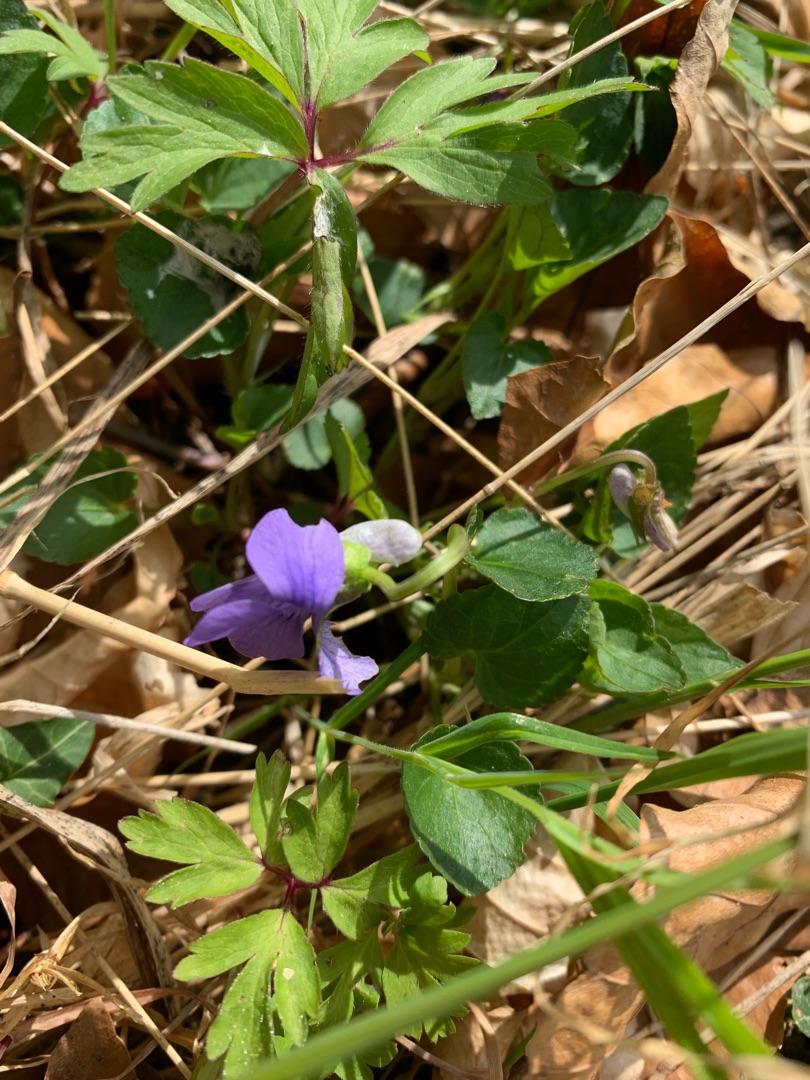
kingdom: Plantae
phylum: Tracheophyta
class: Magnoliopsida
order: Malpighiales
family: Violaceae
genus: Viola
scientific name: Viola riviniana
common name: Krat-viol
